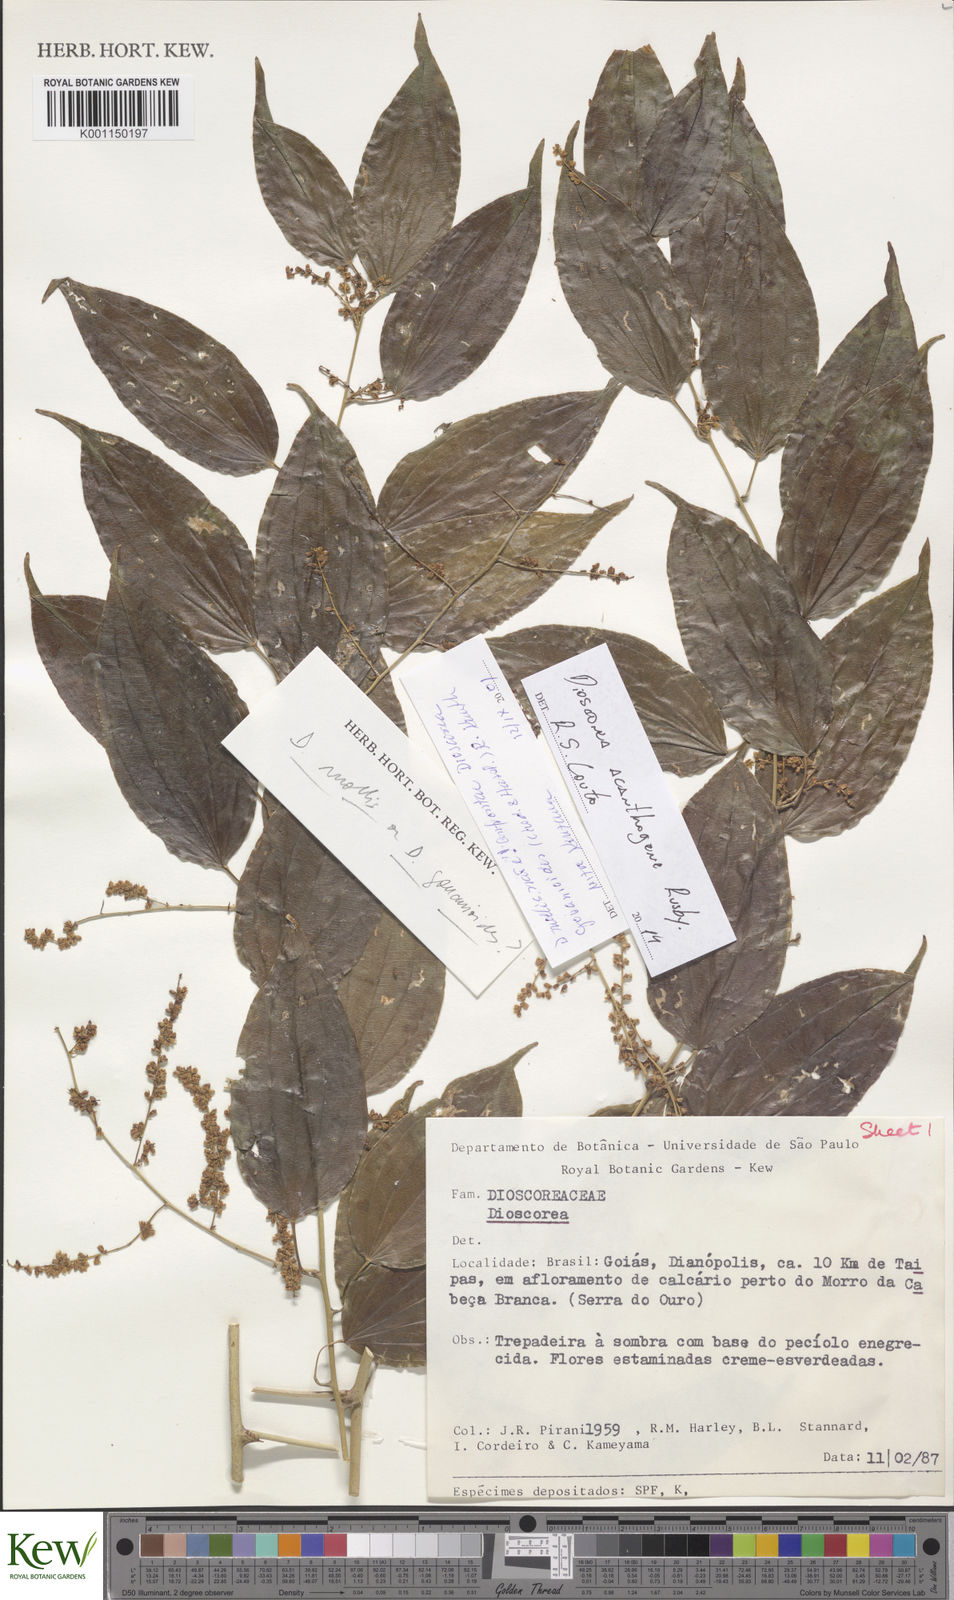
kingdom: Plantae
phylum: Tracheophyta
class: Liliopsida
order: Dioscoreales
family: Dioscoreaceae
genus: Dioscorea
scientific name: Dioscorea
